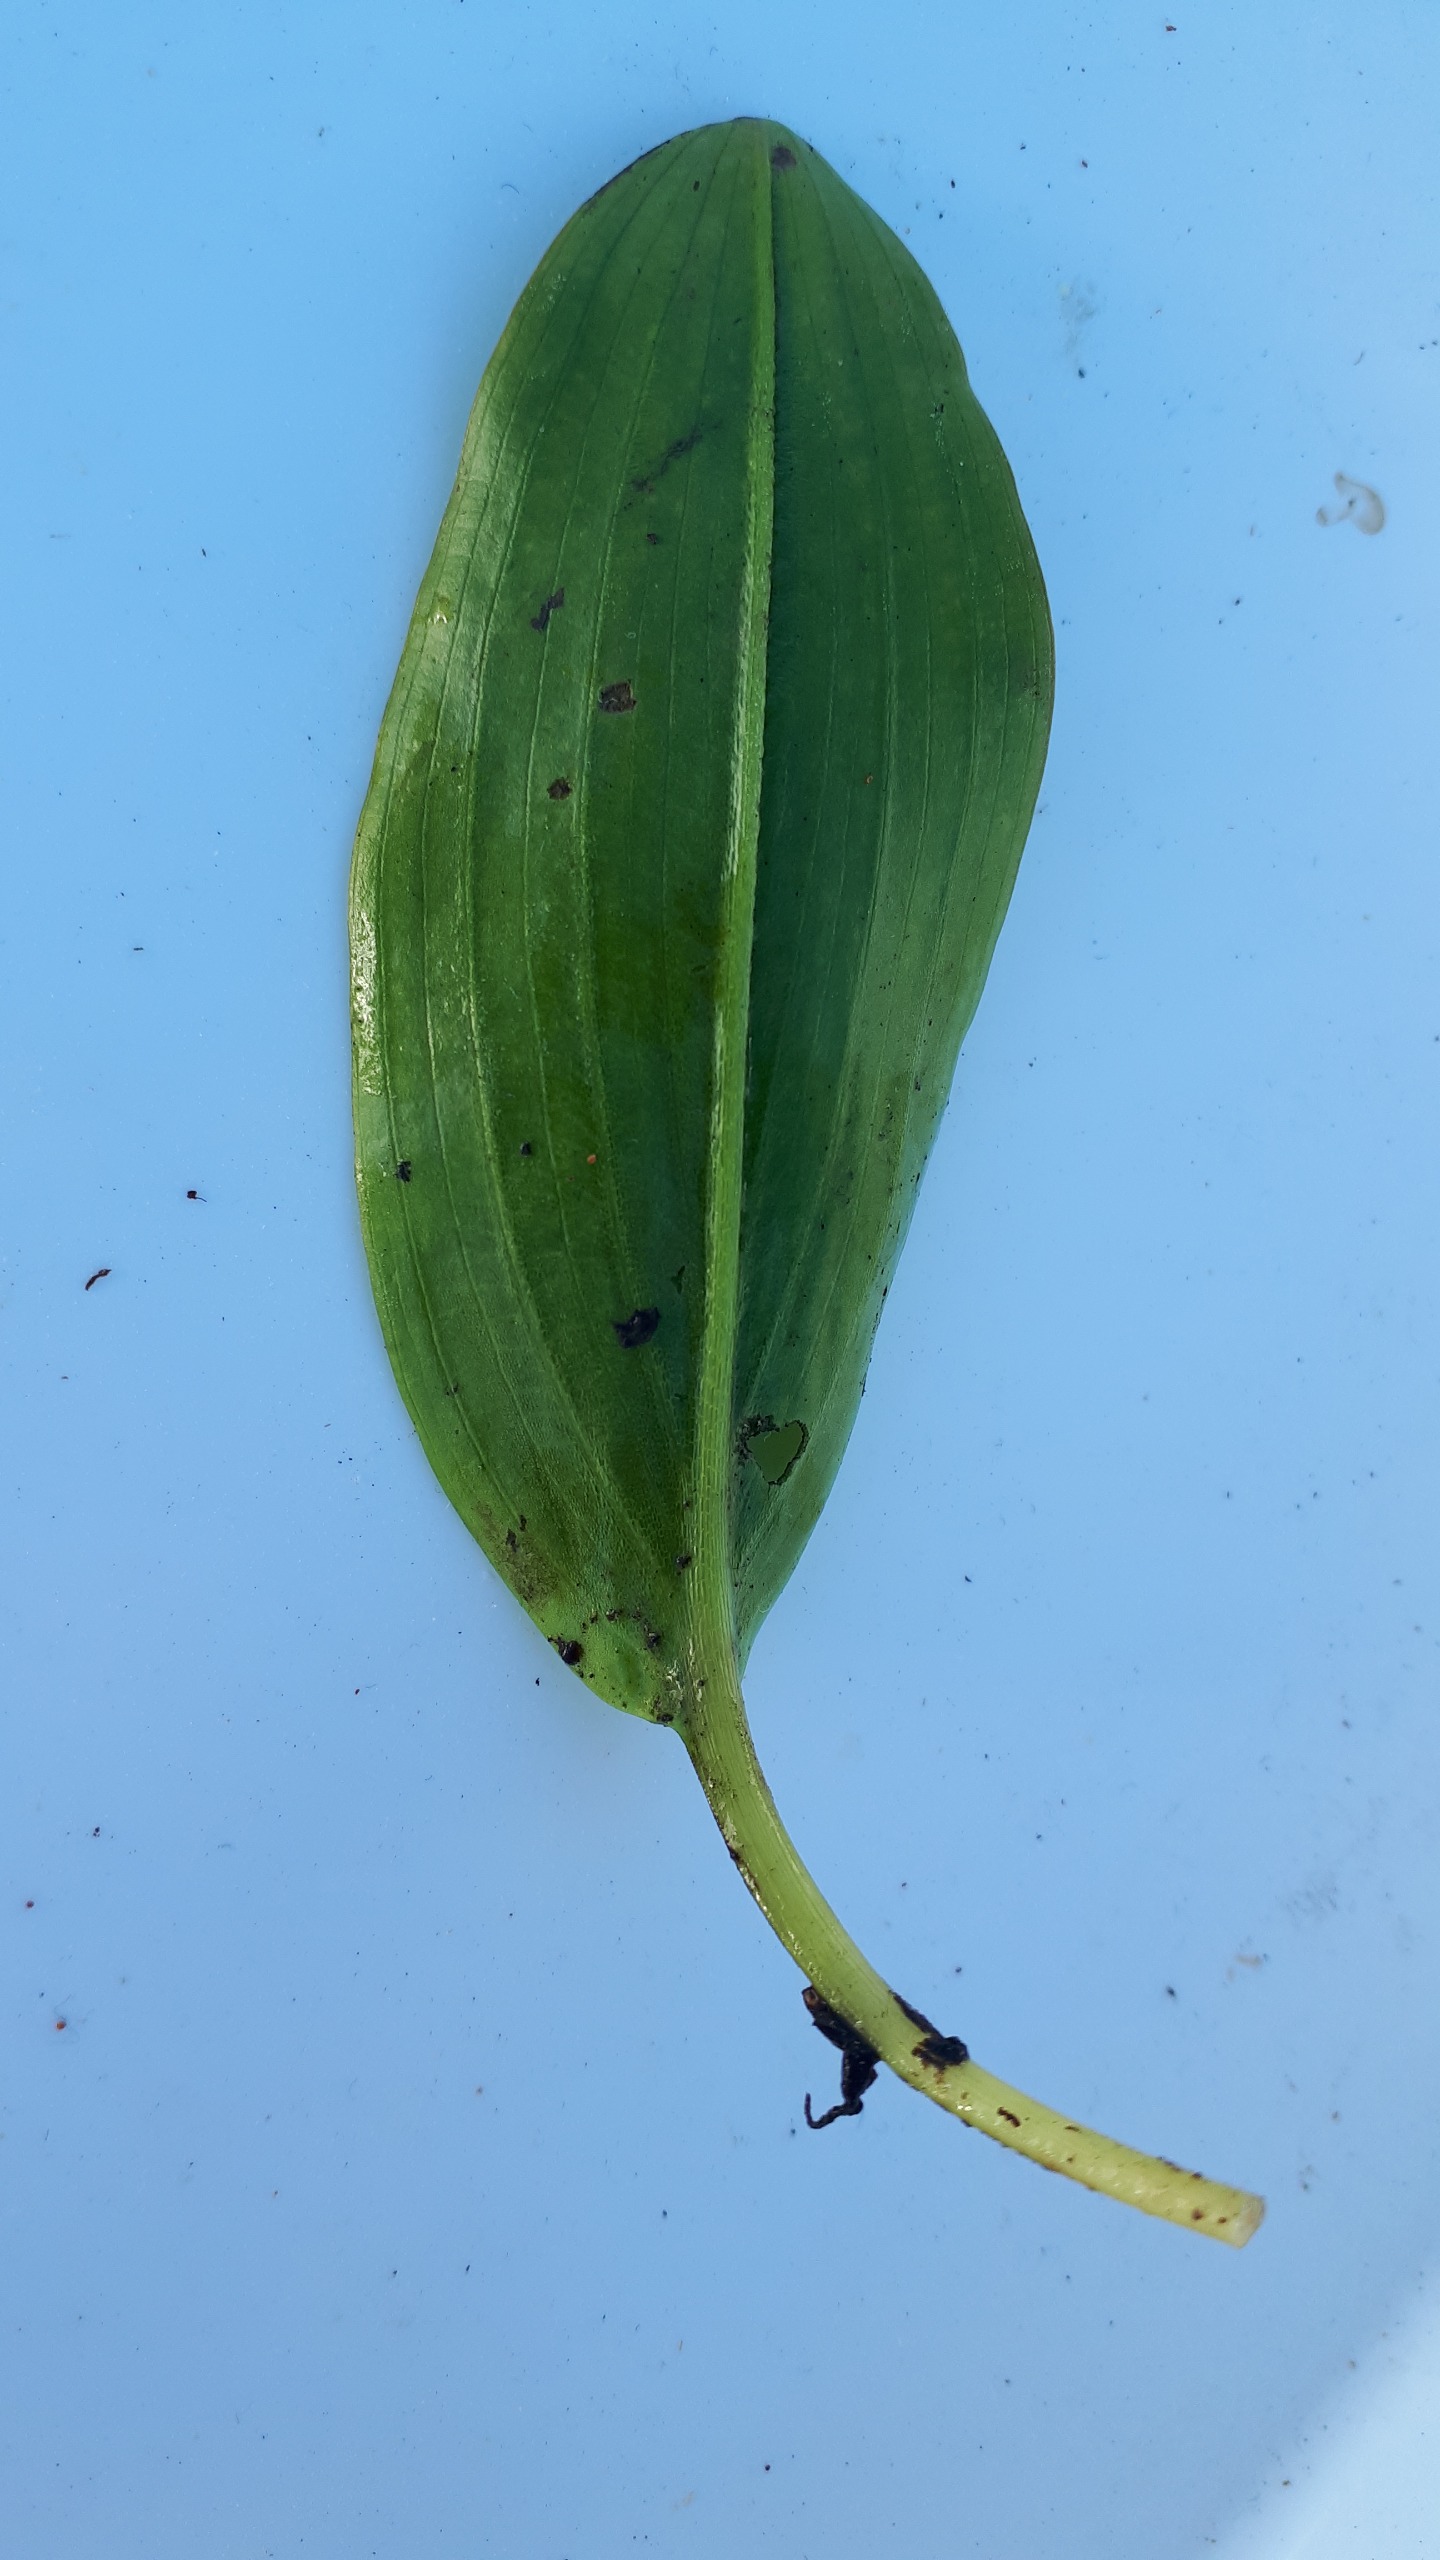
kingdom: Plantae
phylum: Tracheophyta
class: Liliopsida
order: Alismatales
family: Potamogetonaceae
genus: Potamogeton
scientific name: Potamogeton polygonifolius
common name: Aflangbladet vandaks
